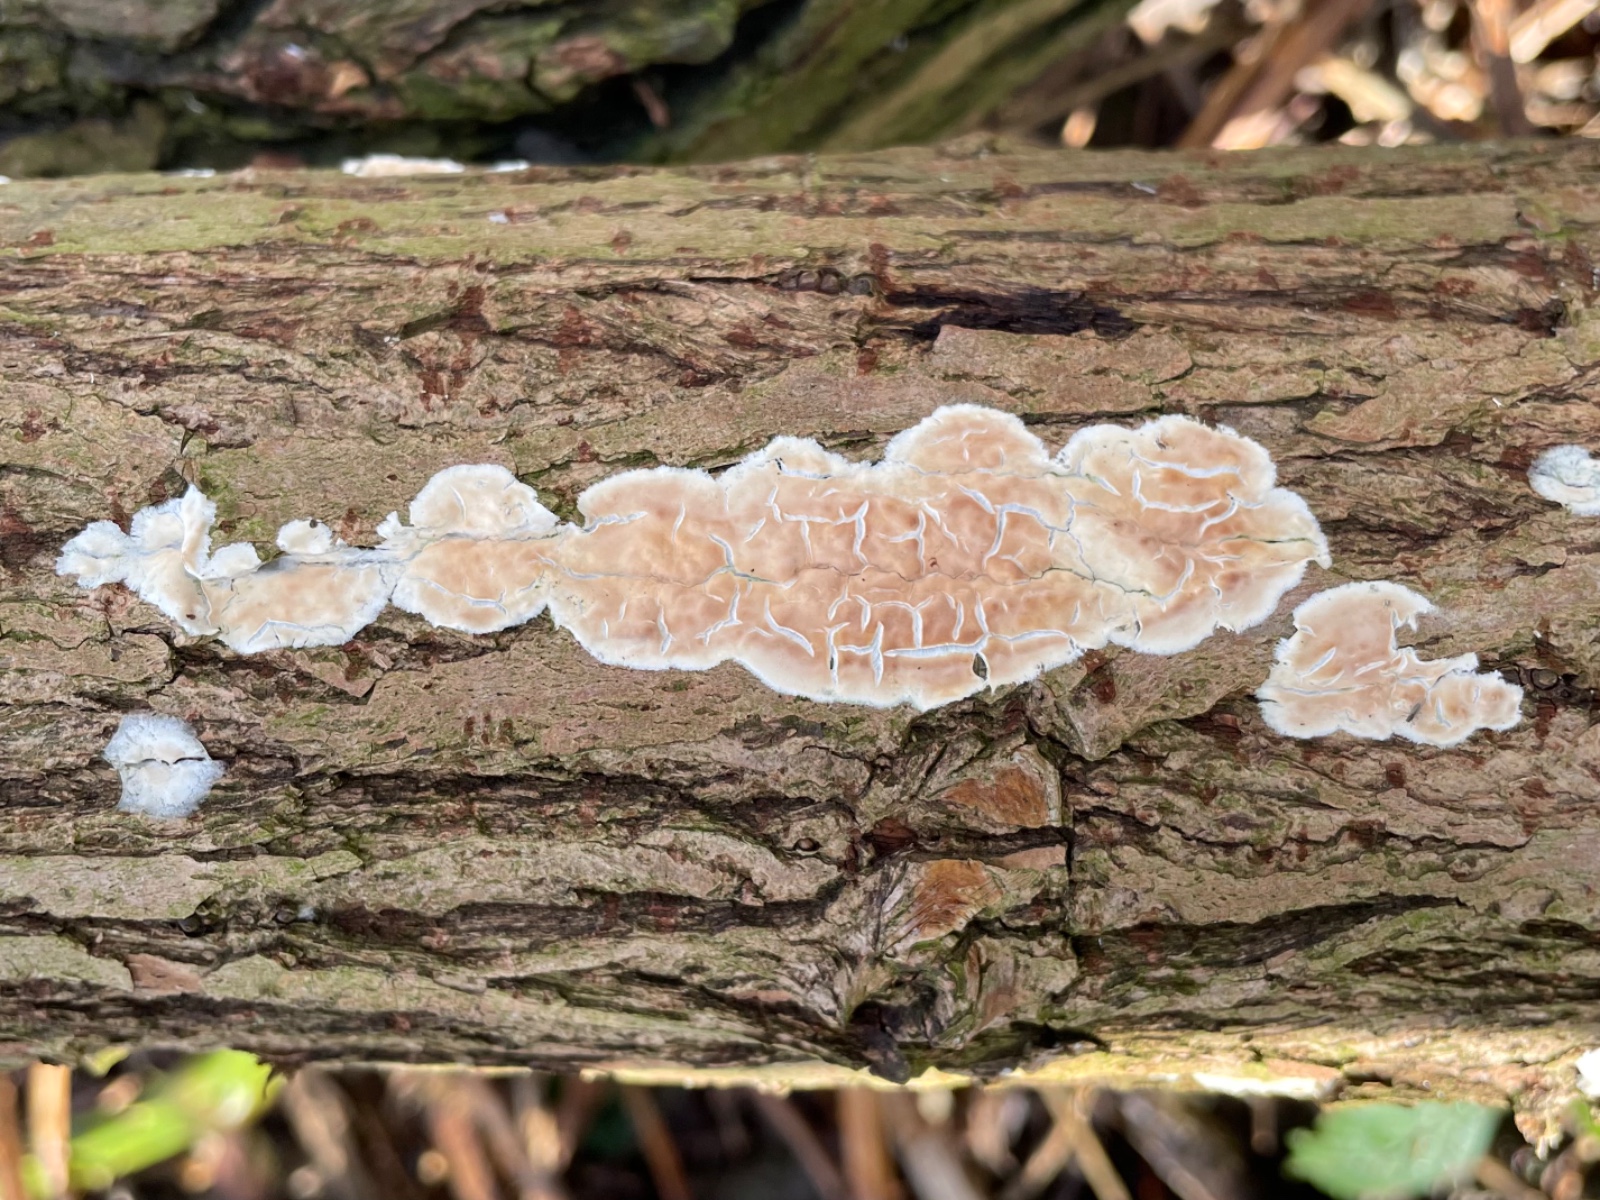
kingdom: Fungi
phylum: Basidiomycota
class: Agaricomycetes
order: Agaricales
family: Physalacriaceae
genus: Cylindrobasidium
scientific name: Cylindrobasidium evolvens
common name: sprækkehinde
